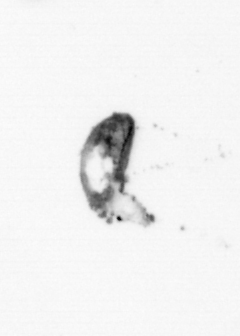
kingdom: Animalia
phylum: Arthropoda
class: Maxillopoda
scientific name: Maxillopoda
